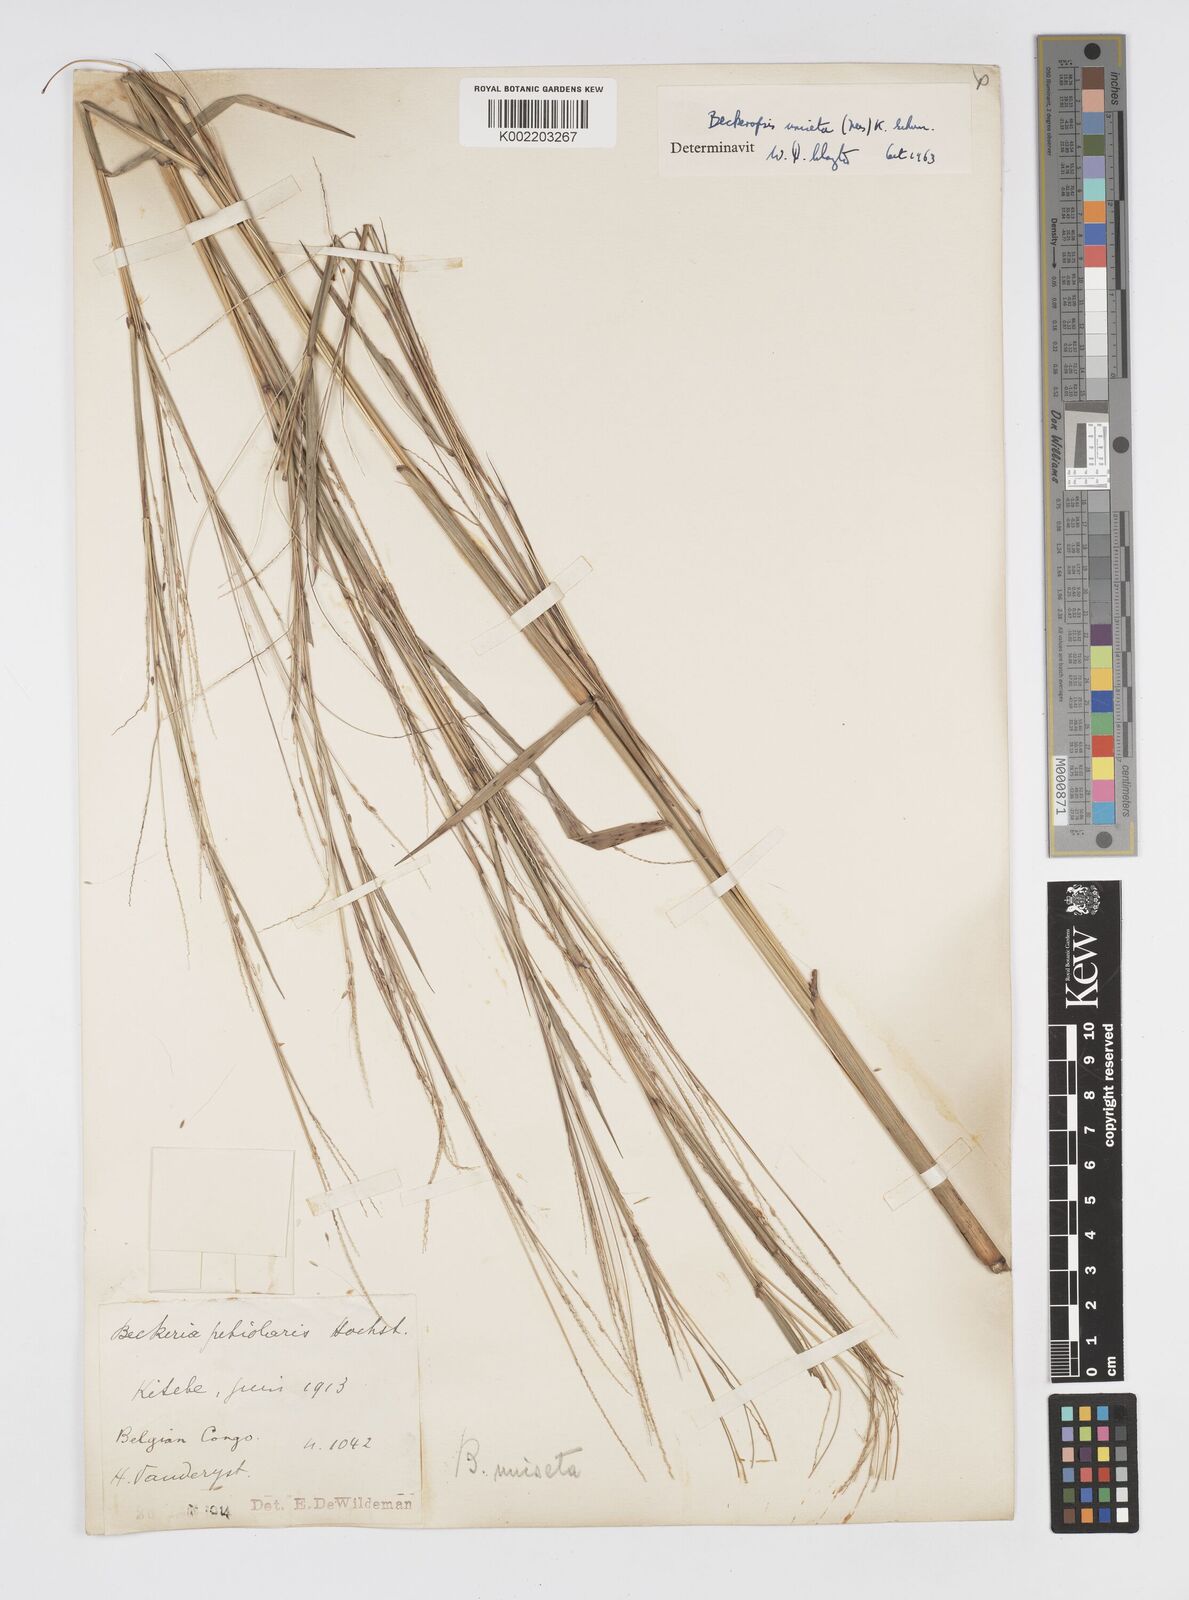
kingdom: Plantae
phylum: Tracheophyta
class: Liliopsida
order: Poales
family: Poaceae
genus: Cenchrus
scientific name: Cenchrus unisetus
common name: Natal grass
